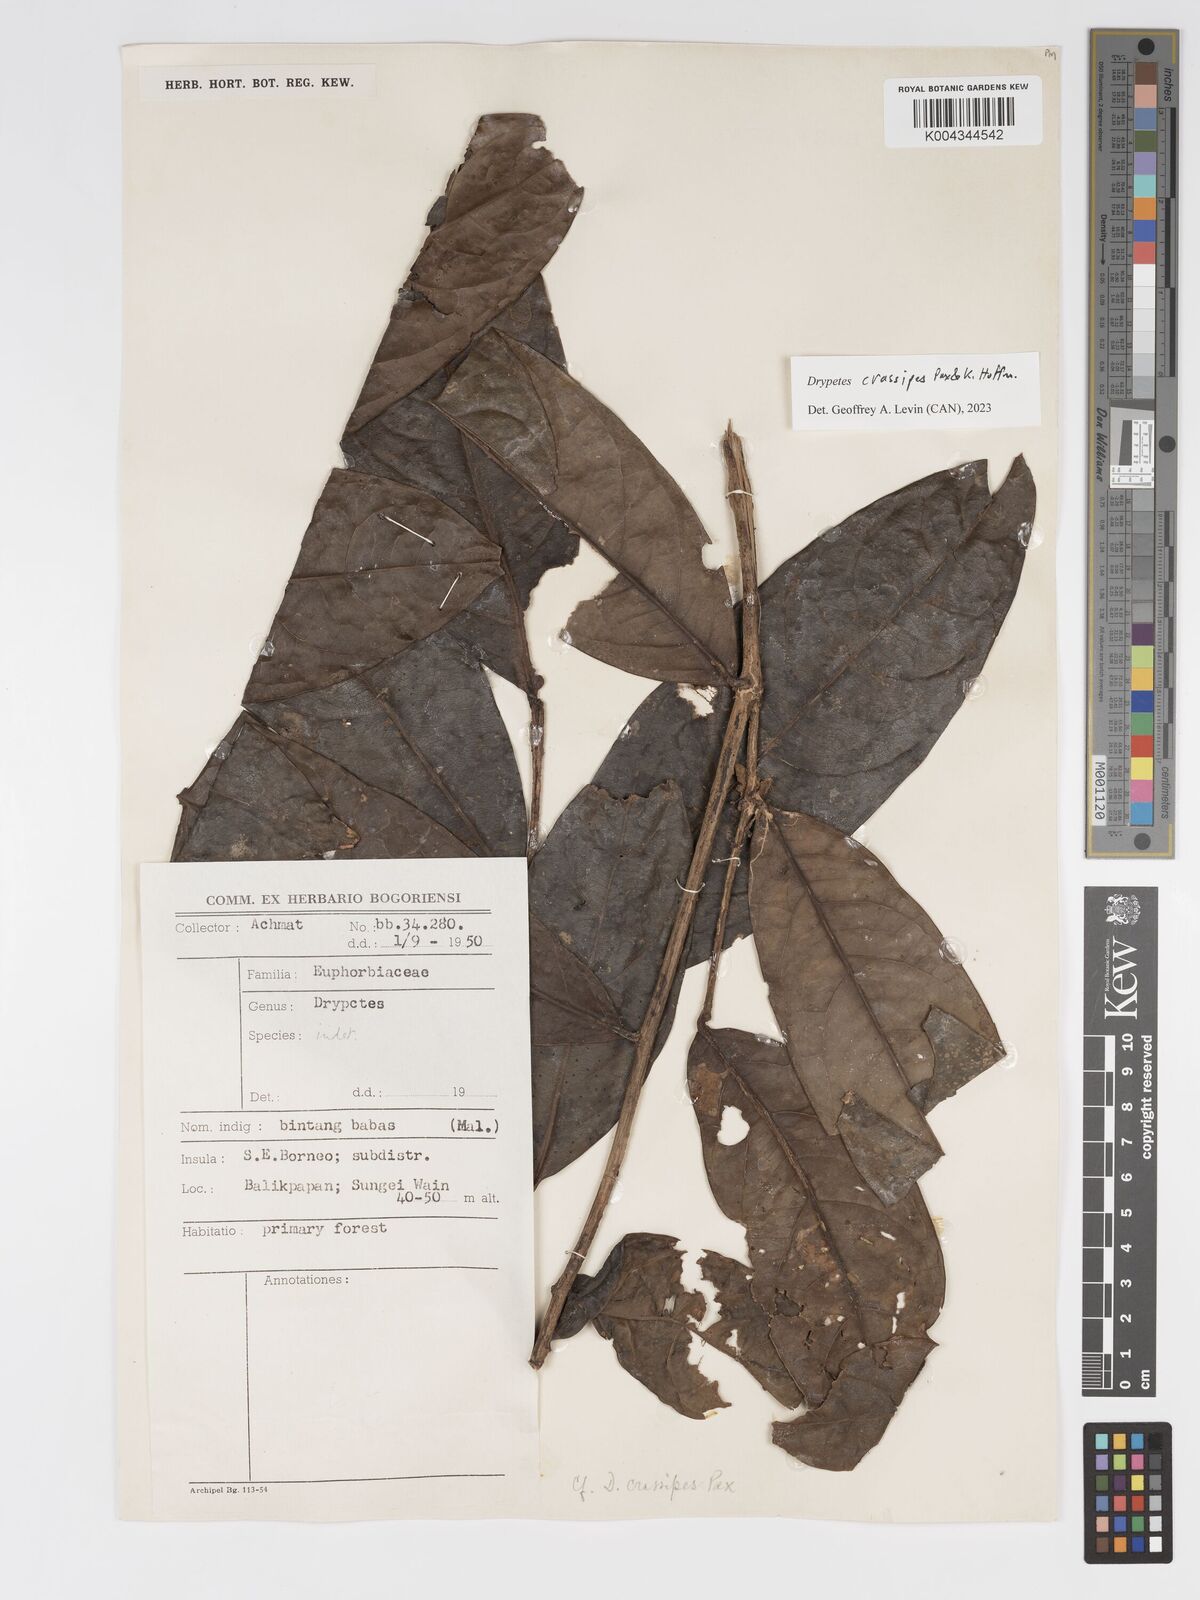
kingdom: Plantae
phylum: Tracheophyta
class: Magnoliopsida
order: Malpighiales
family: Putranjivaceae
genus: Drypetes
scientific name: Drypetes crassipes
